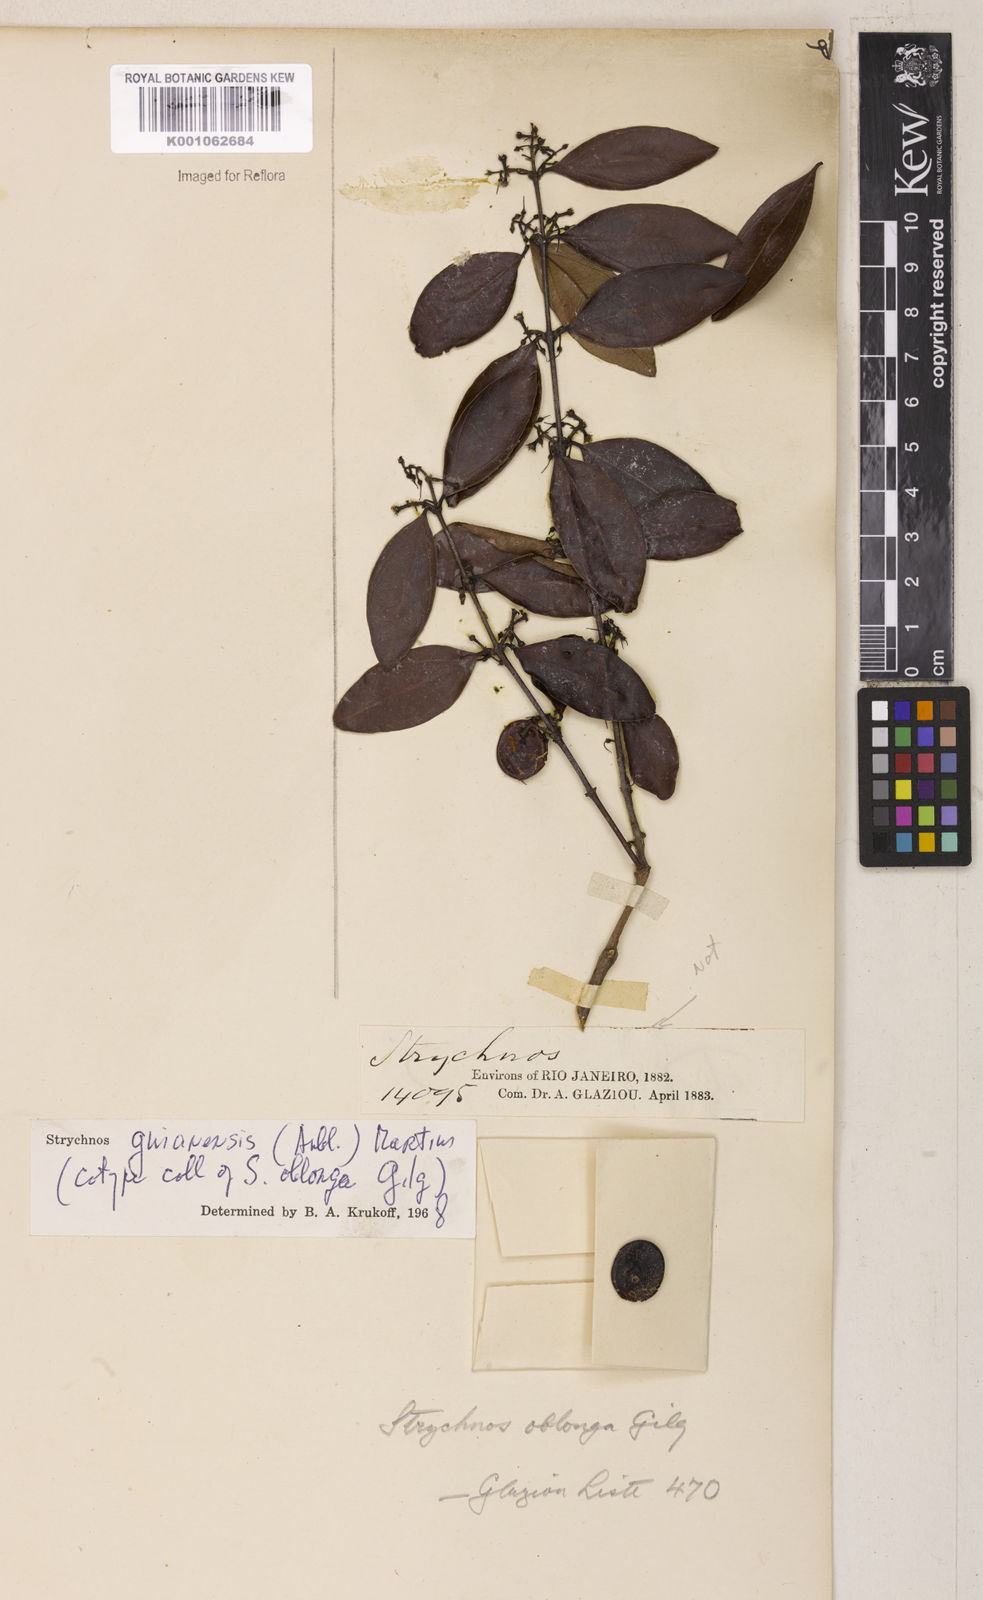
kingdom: Plantae
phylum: Tracheophyta
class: Magnoliopsida
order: Gentianales
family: Loganiaceae
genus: Strychnos
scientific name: Strychnos guianensis
